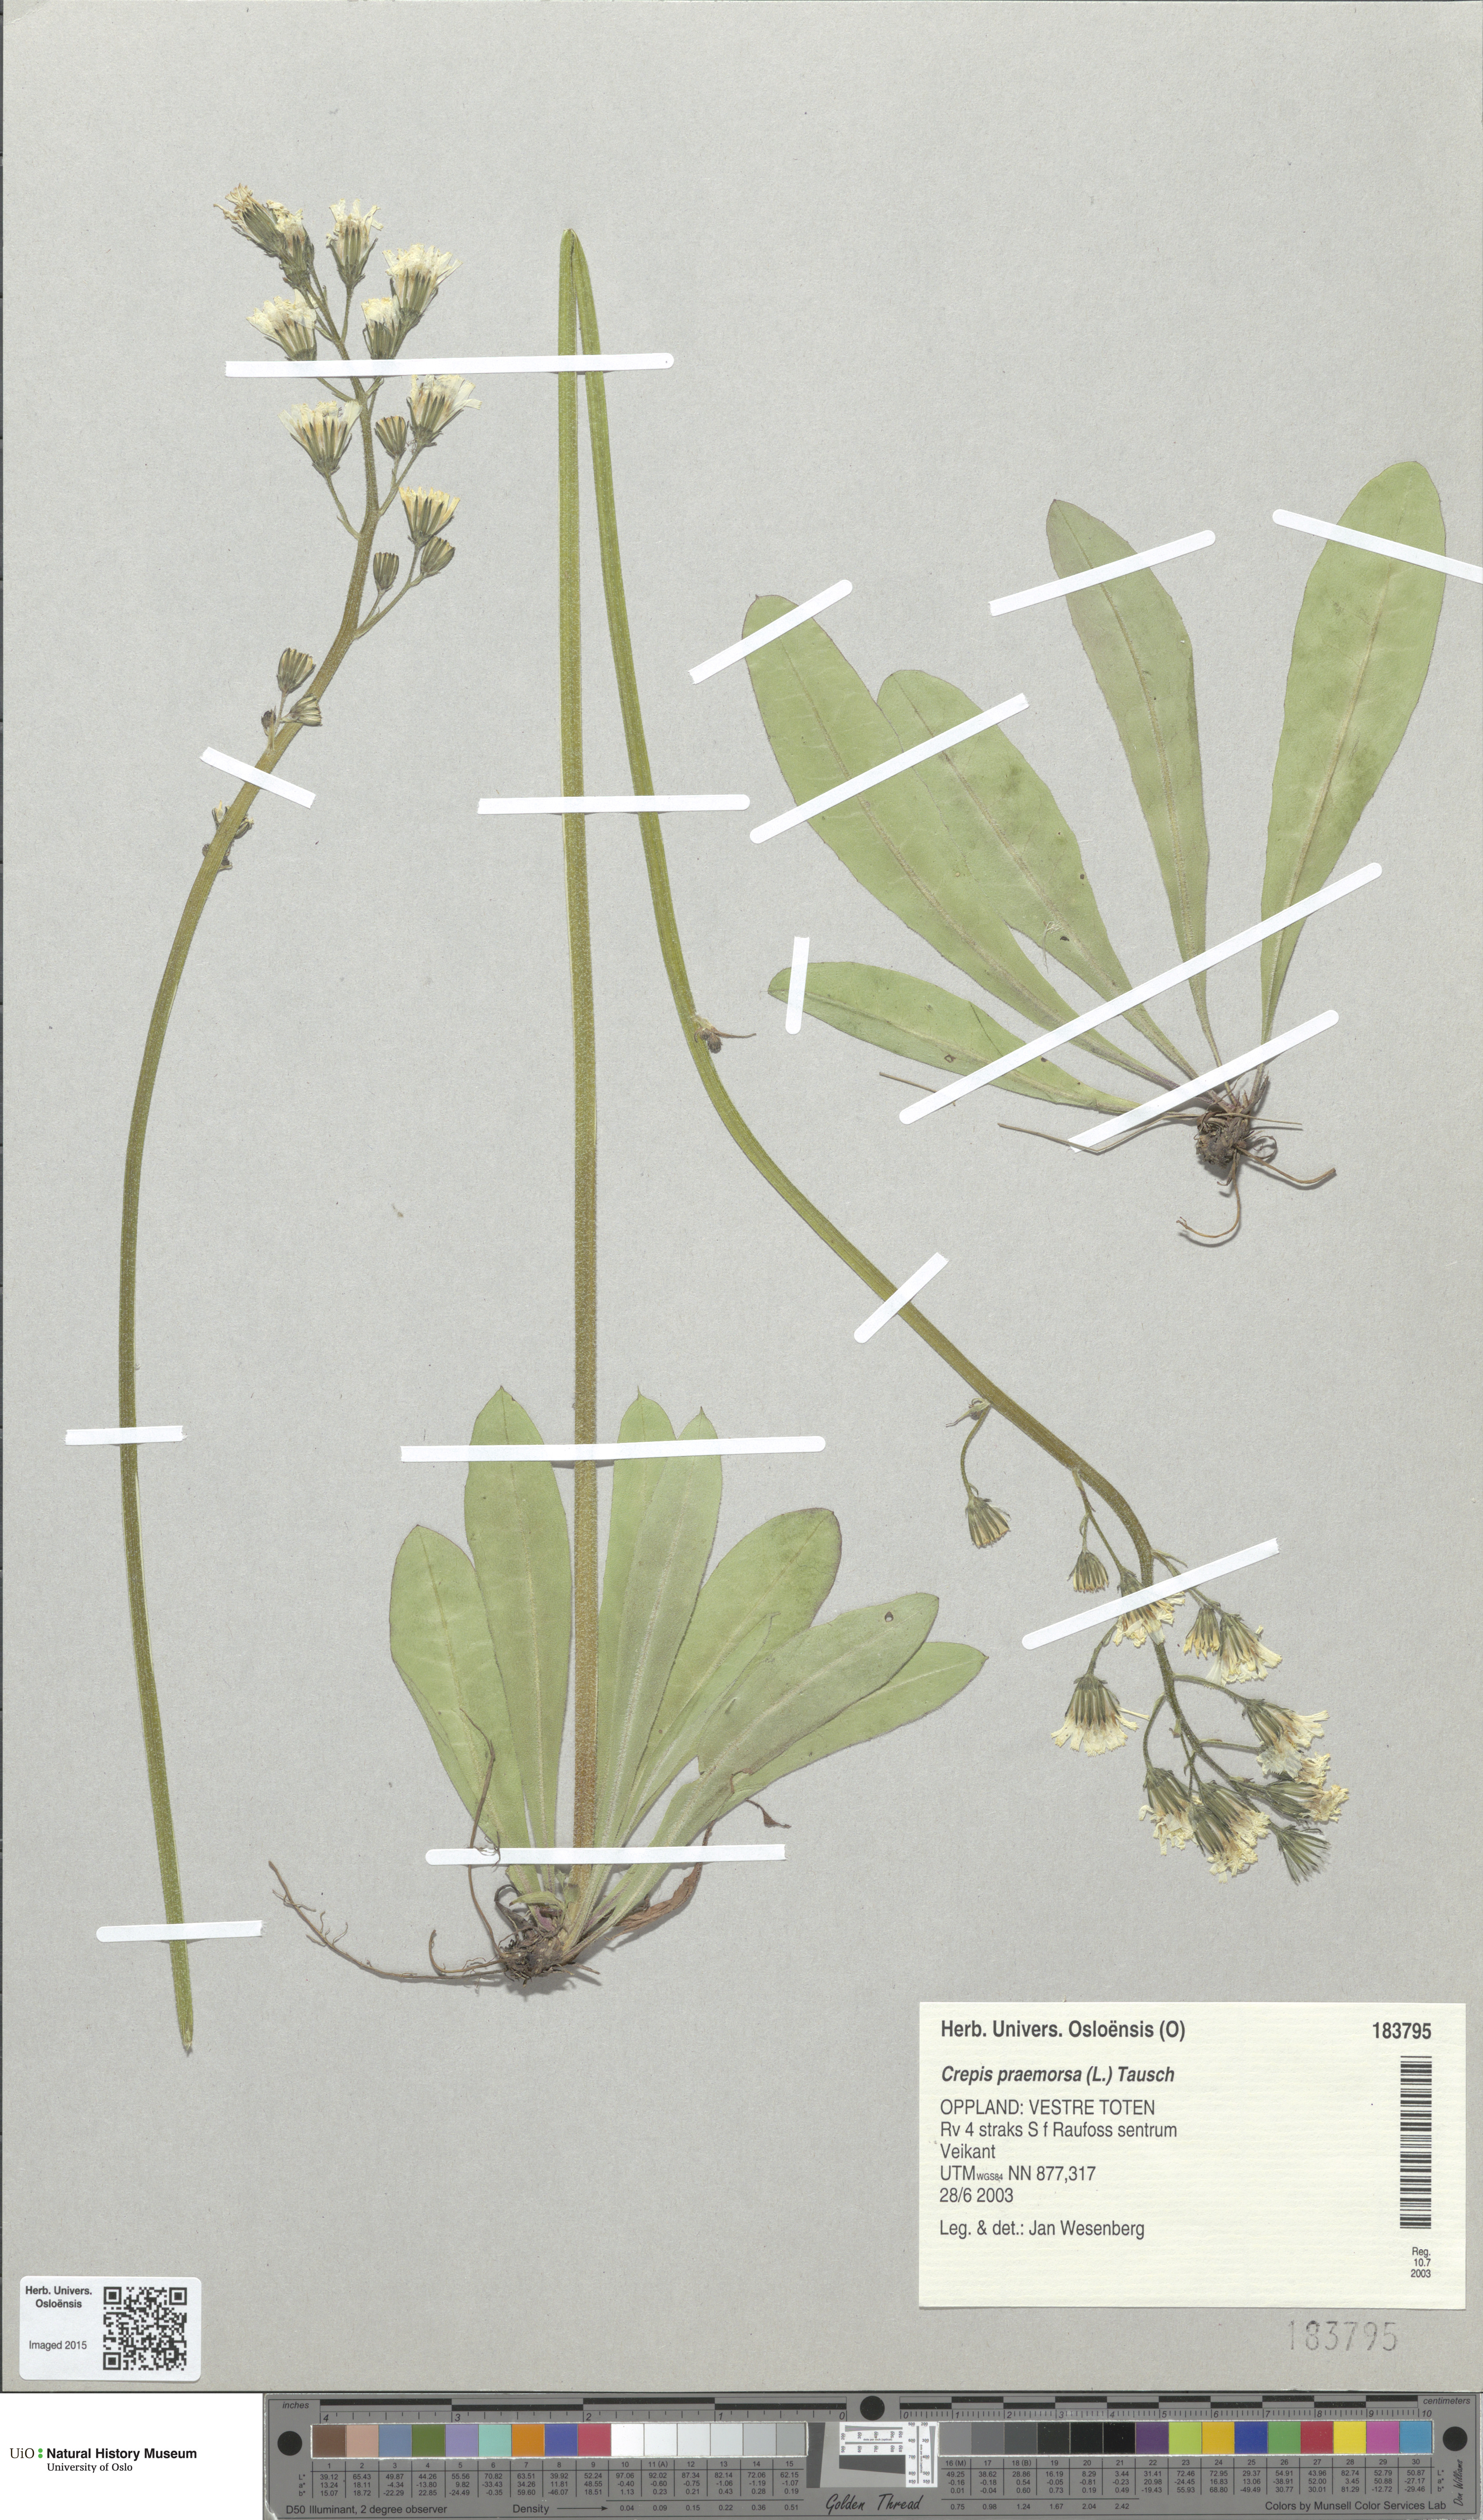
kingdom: Plantae
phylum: Tracheophyta
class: Magnoliopsida
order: Asterales
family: Asteraceae
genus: Crepis
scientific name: Crepis praemorsa
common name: Leafless hawk's-beard
